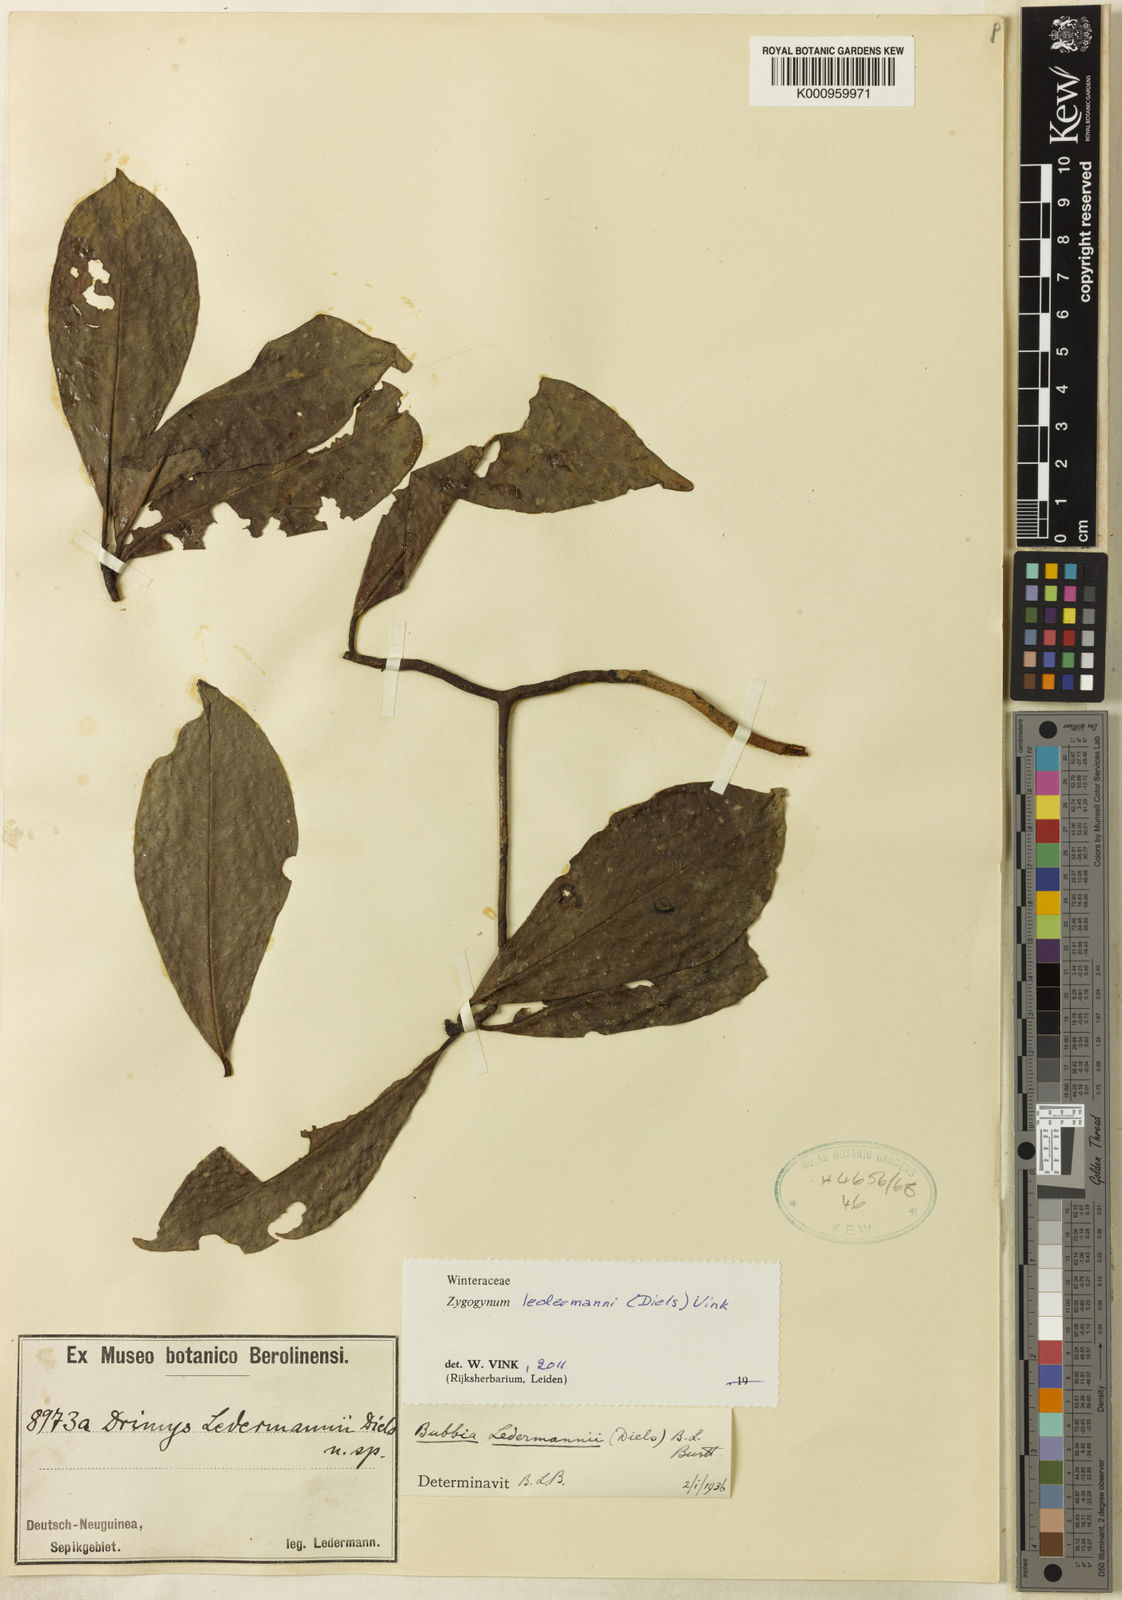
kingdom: Plantae
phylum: Tracheophyta
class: Magnoliopsida
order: Canellales
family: Winteraceae
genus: Zygogynum
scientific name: Zygogynum ledermannii
